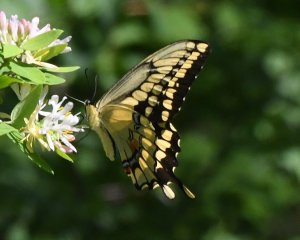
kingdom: Animalia
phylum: Arthropoda
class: Insecta
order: Lepidoptera
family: Papilionidae
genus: Papilio
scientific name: Papilio cresphontes
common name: Eastern Giant Swallowtail
